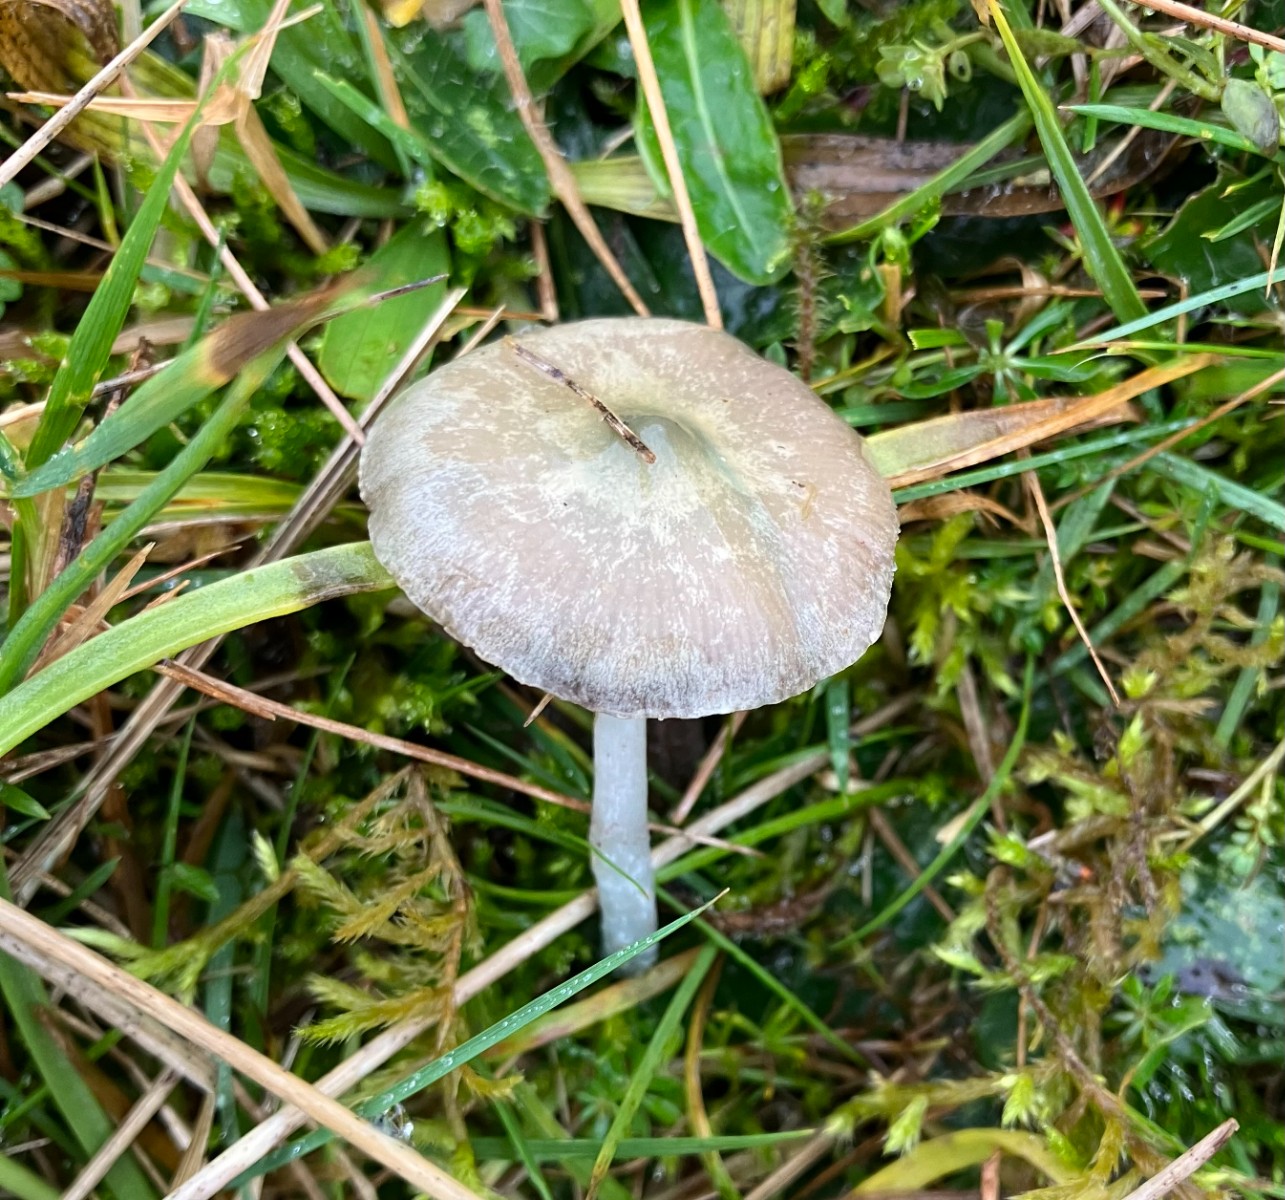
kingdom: Fungi
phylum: Basidiomycota
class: Agaricomycetes
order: Agaricales
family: Strophariaceae
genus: Stropharia
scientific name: Stropharia pseudocyanea
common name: blegblå bredblad
